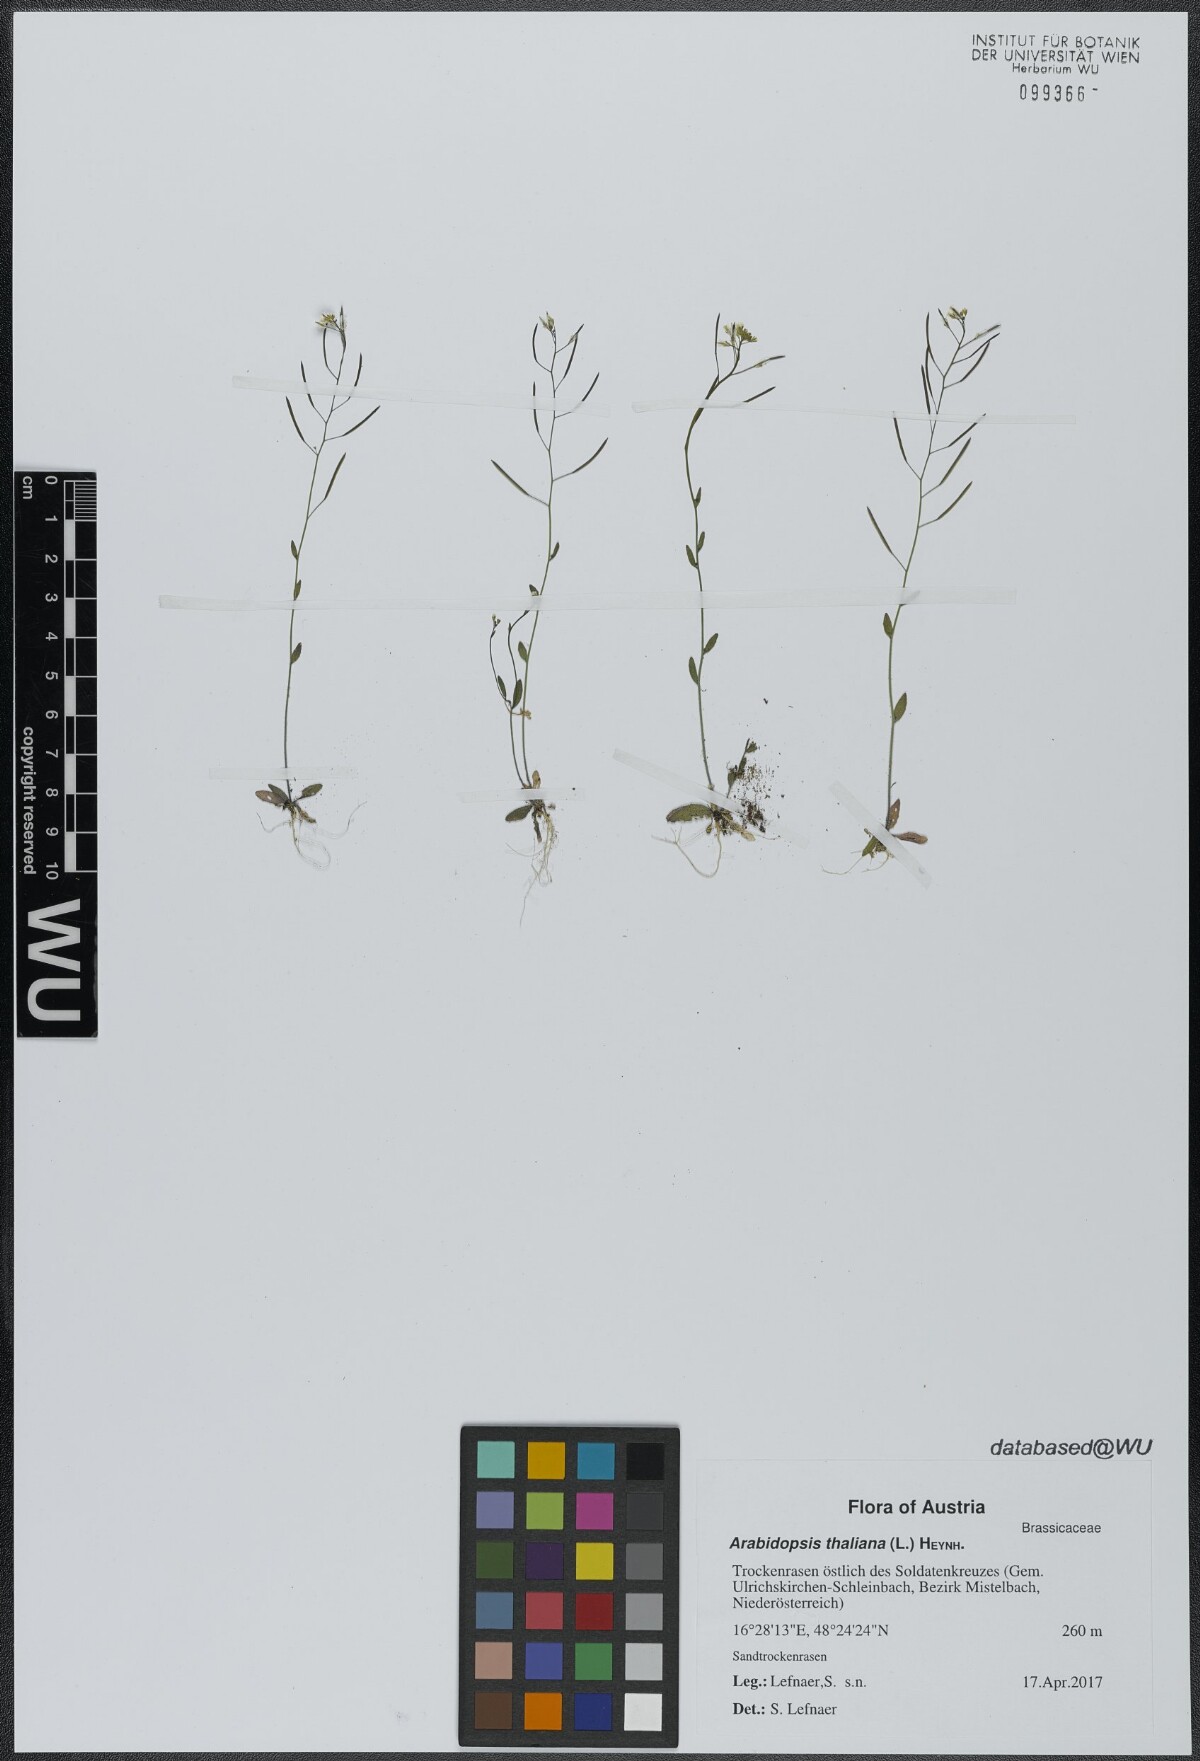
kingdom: Plantae
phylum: Tracheophyta
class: Magnoliopsida
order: Brassicales
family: Brassicaceae
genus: Arabidopsis
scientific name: Arabidopsis thaliana
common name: Thale cress
